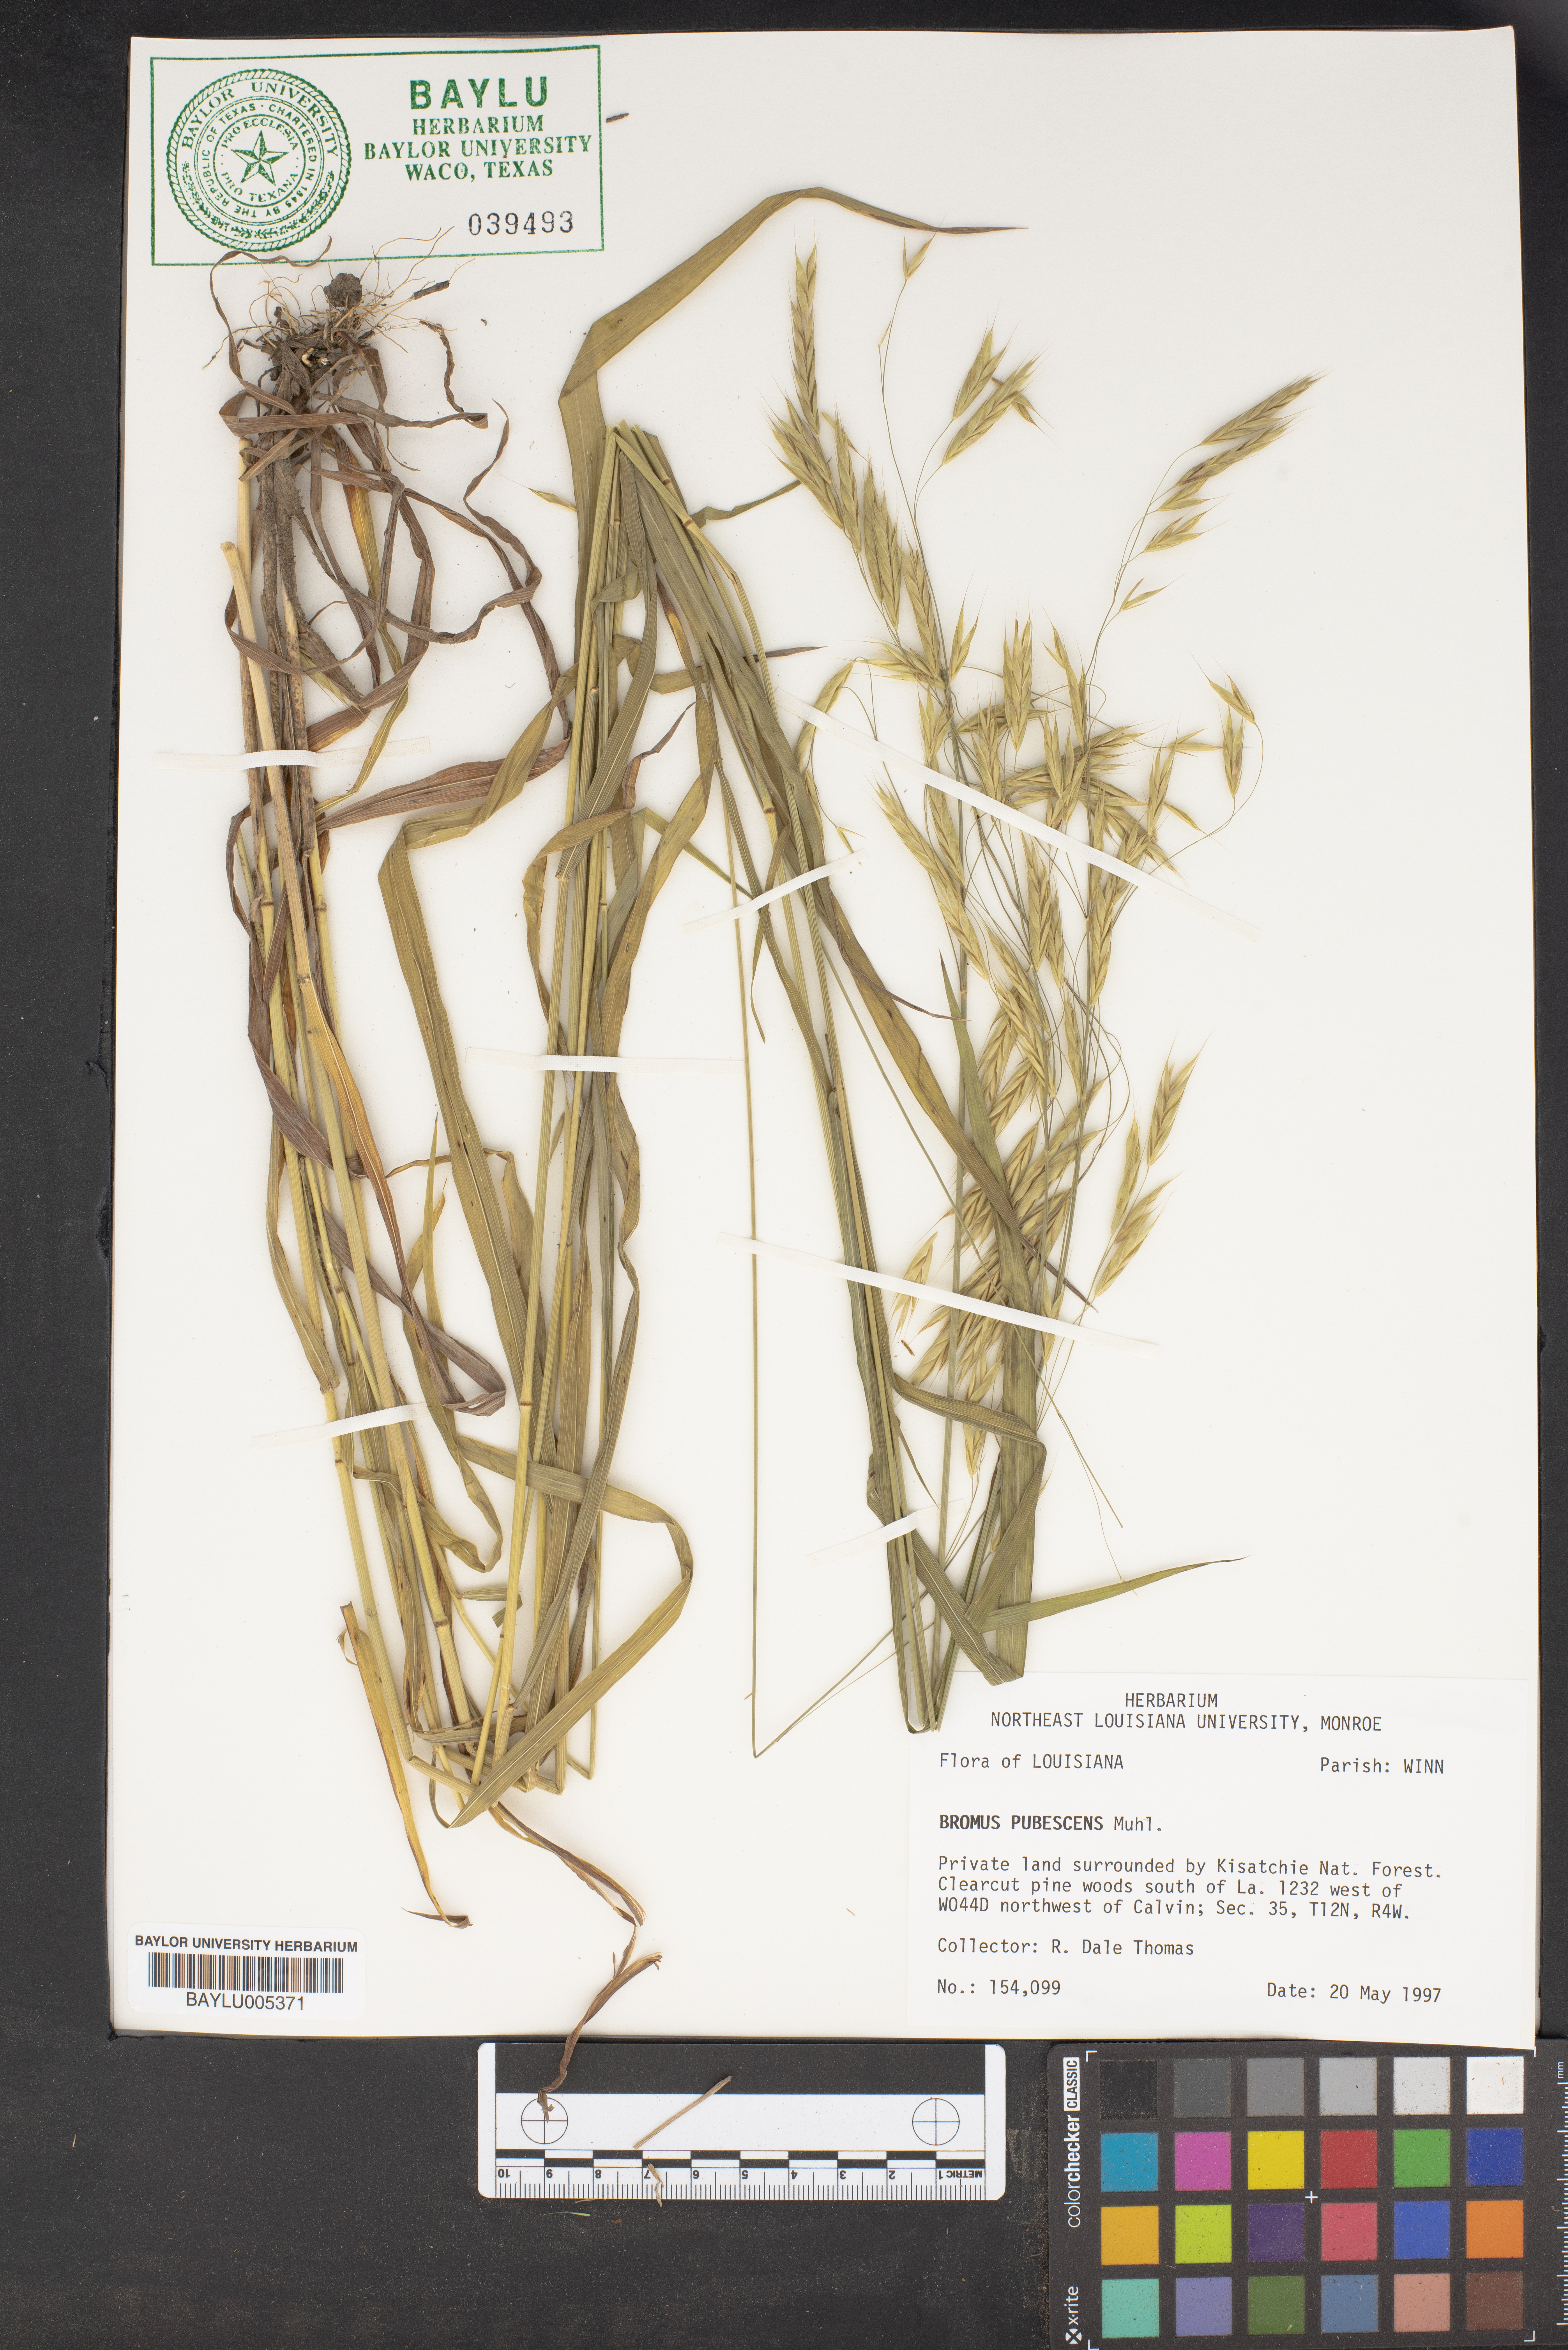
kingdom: Plantae
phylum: Tracheophyta
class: Liliopsida
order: Poales
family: Poaceae
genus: Bromus
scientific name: Bromus pubescens
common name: Hairy wood brome grass
